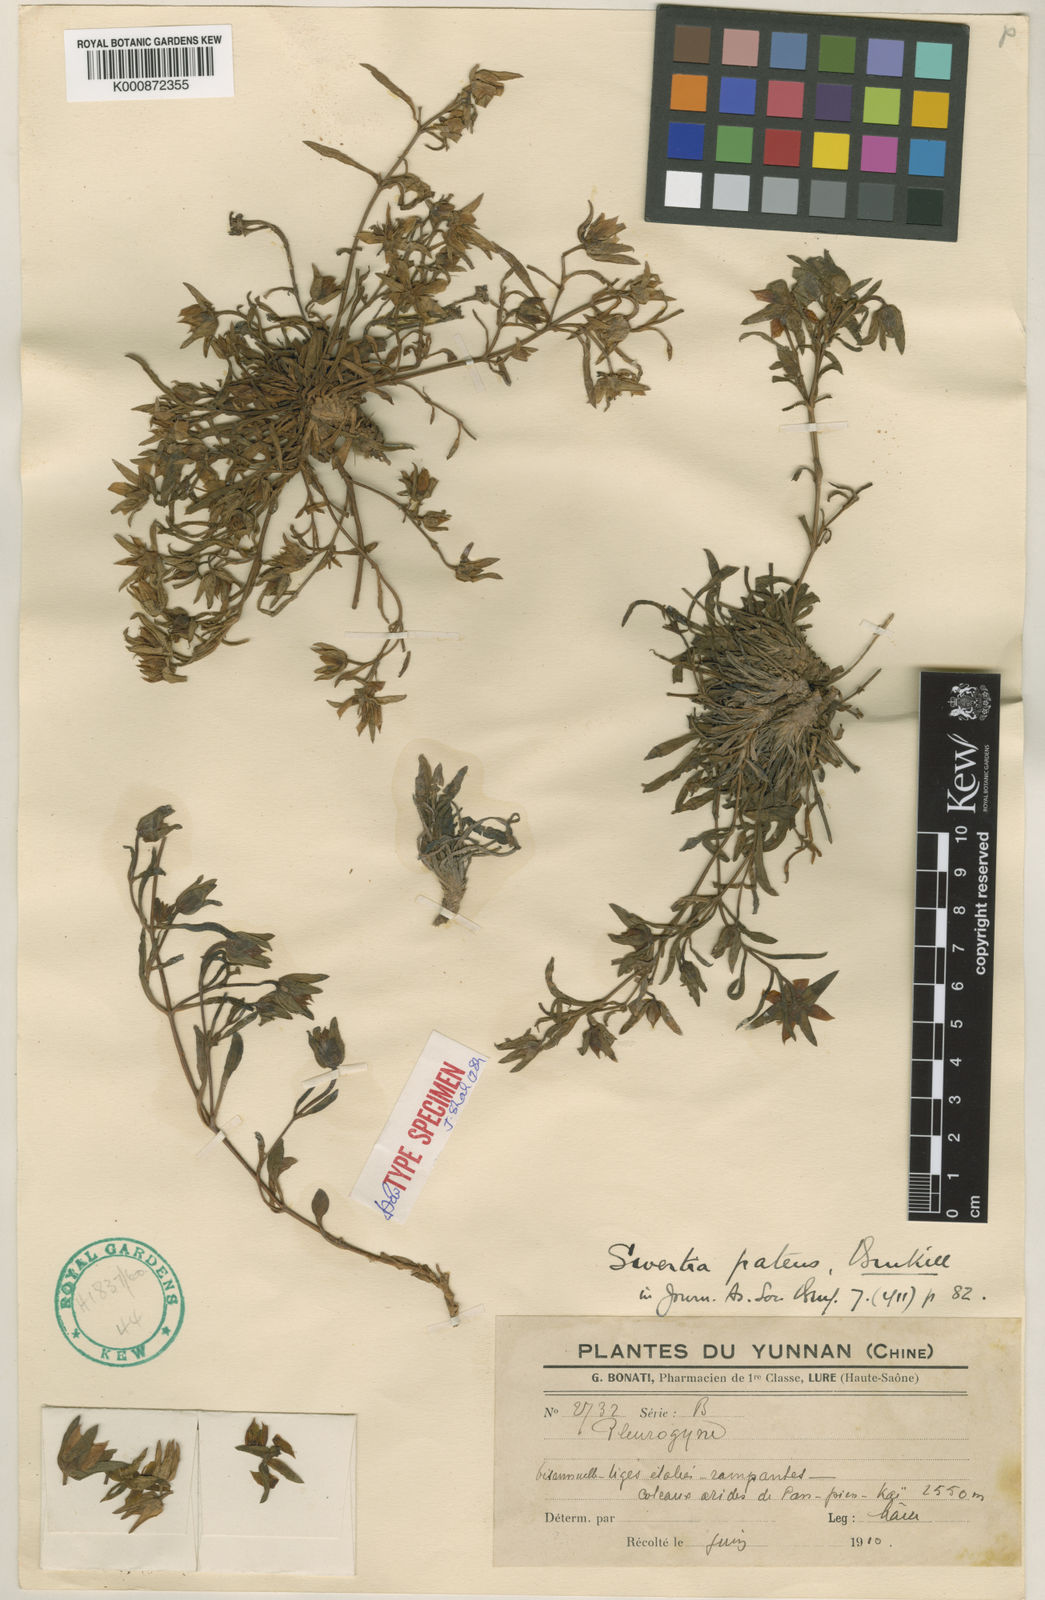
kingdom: Plantae
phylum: Tracheophyta
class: Magnoliopsida
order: Gentianales
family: Gentianaceae
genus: Swertia
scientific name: Swertia patens
